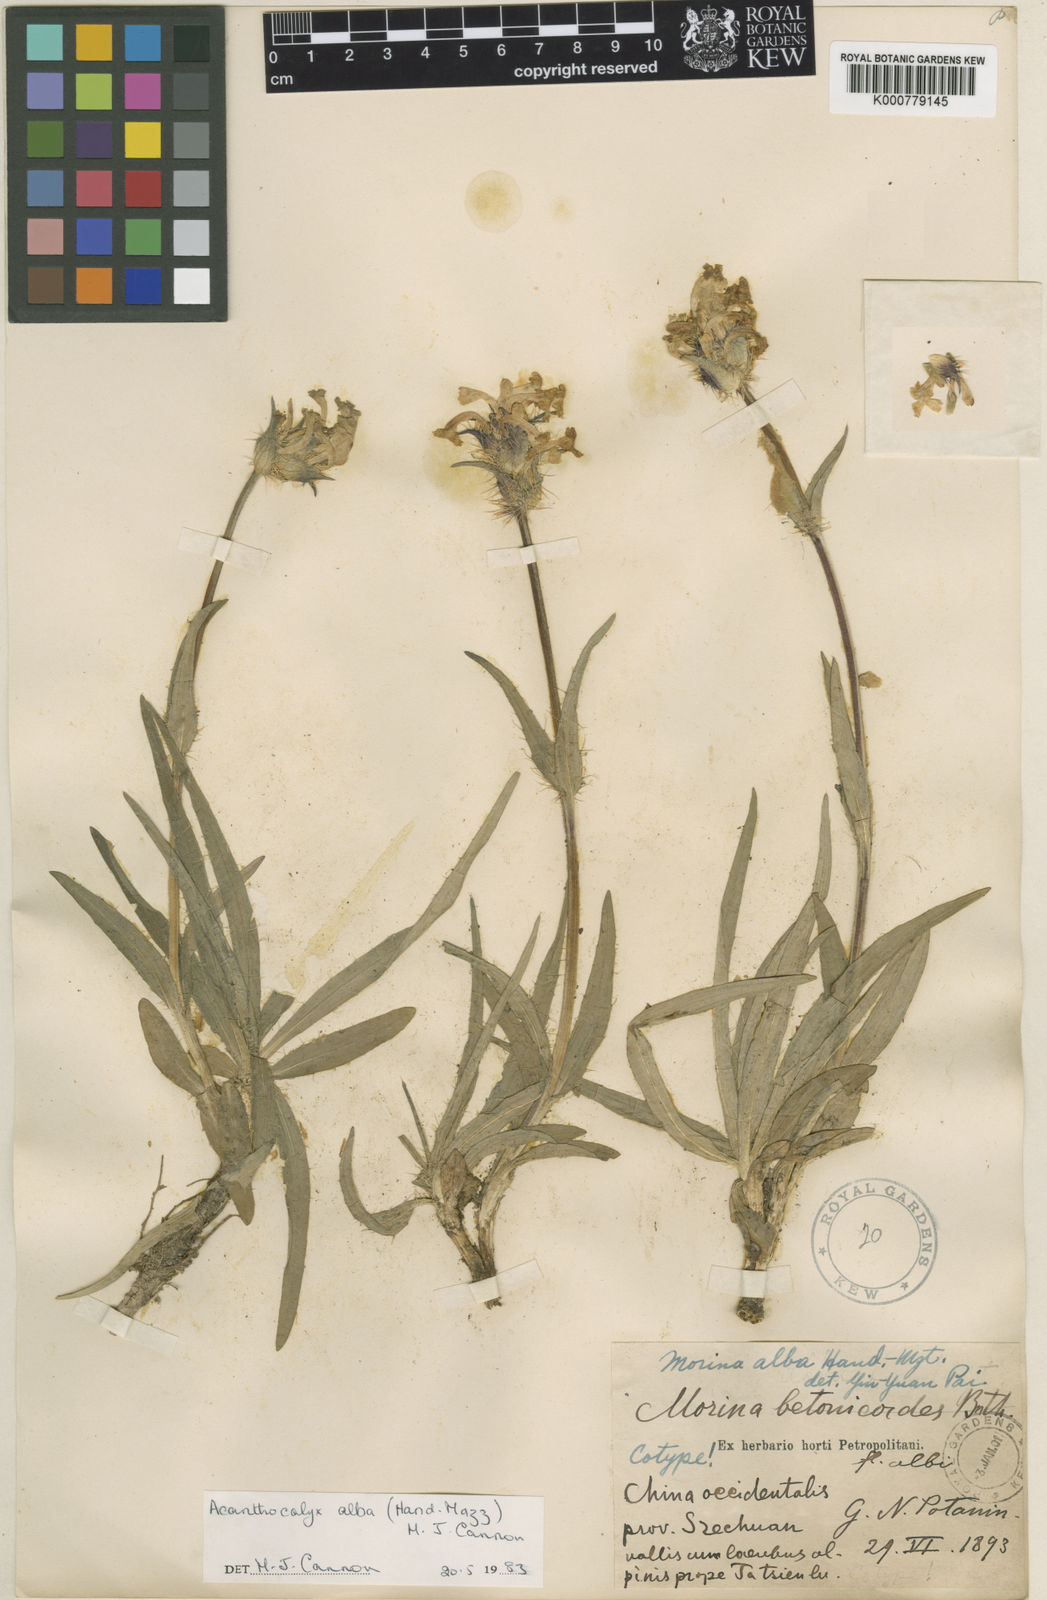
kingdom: Plantae
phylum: Tracheophyta
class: Magnoliopsida
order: Dipsacales
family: Caprifoliaceae
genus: Acanthocalyx
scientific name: Acanthocalyx alba
